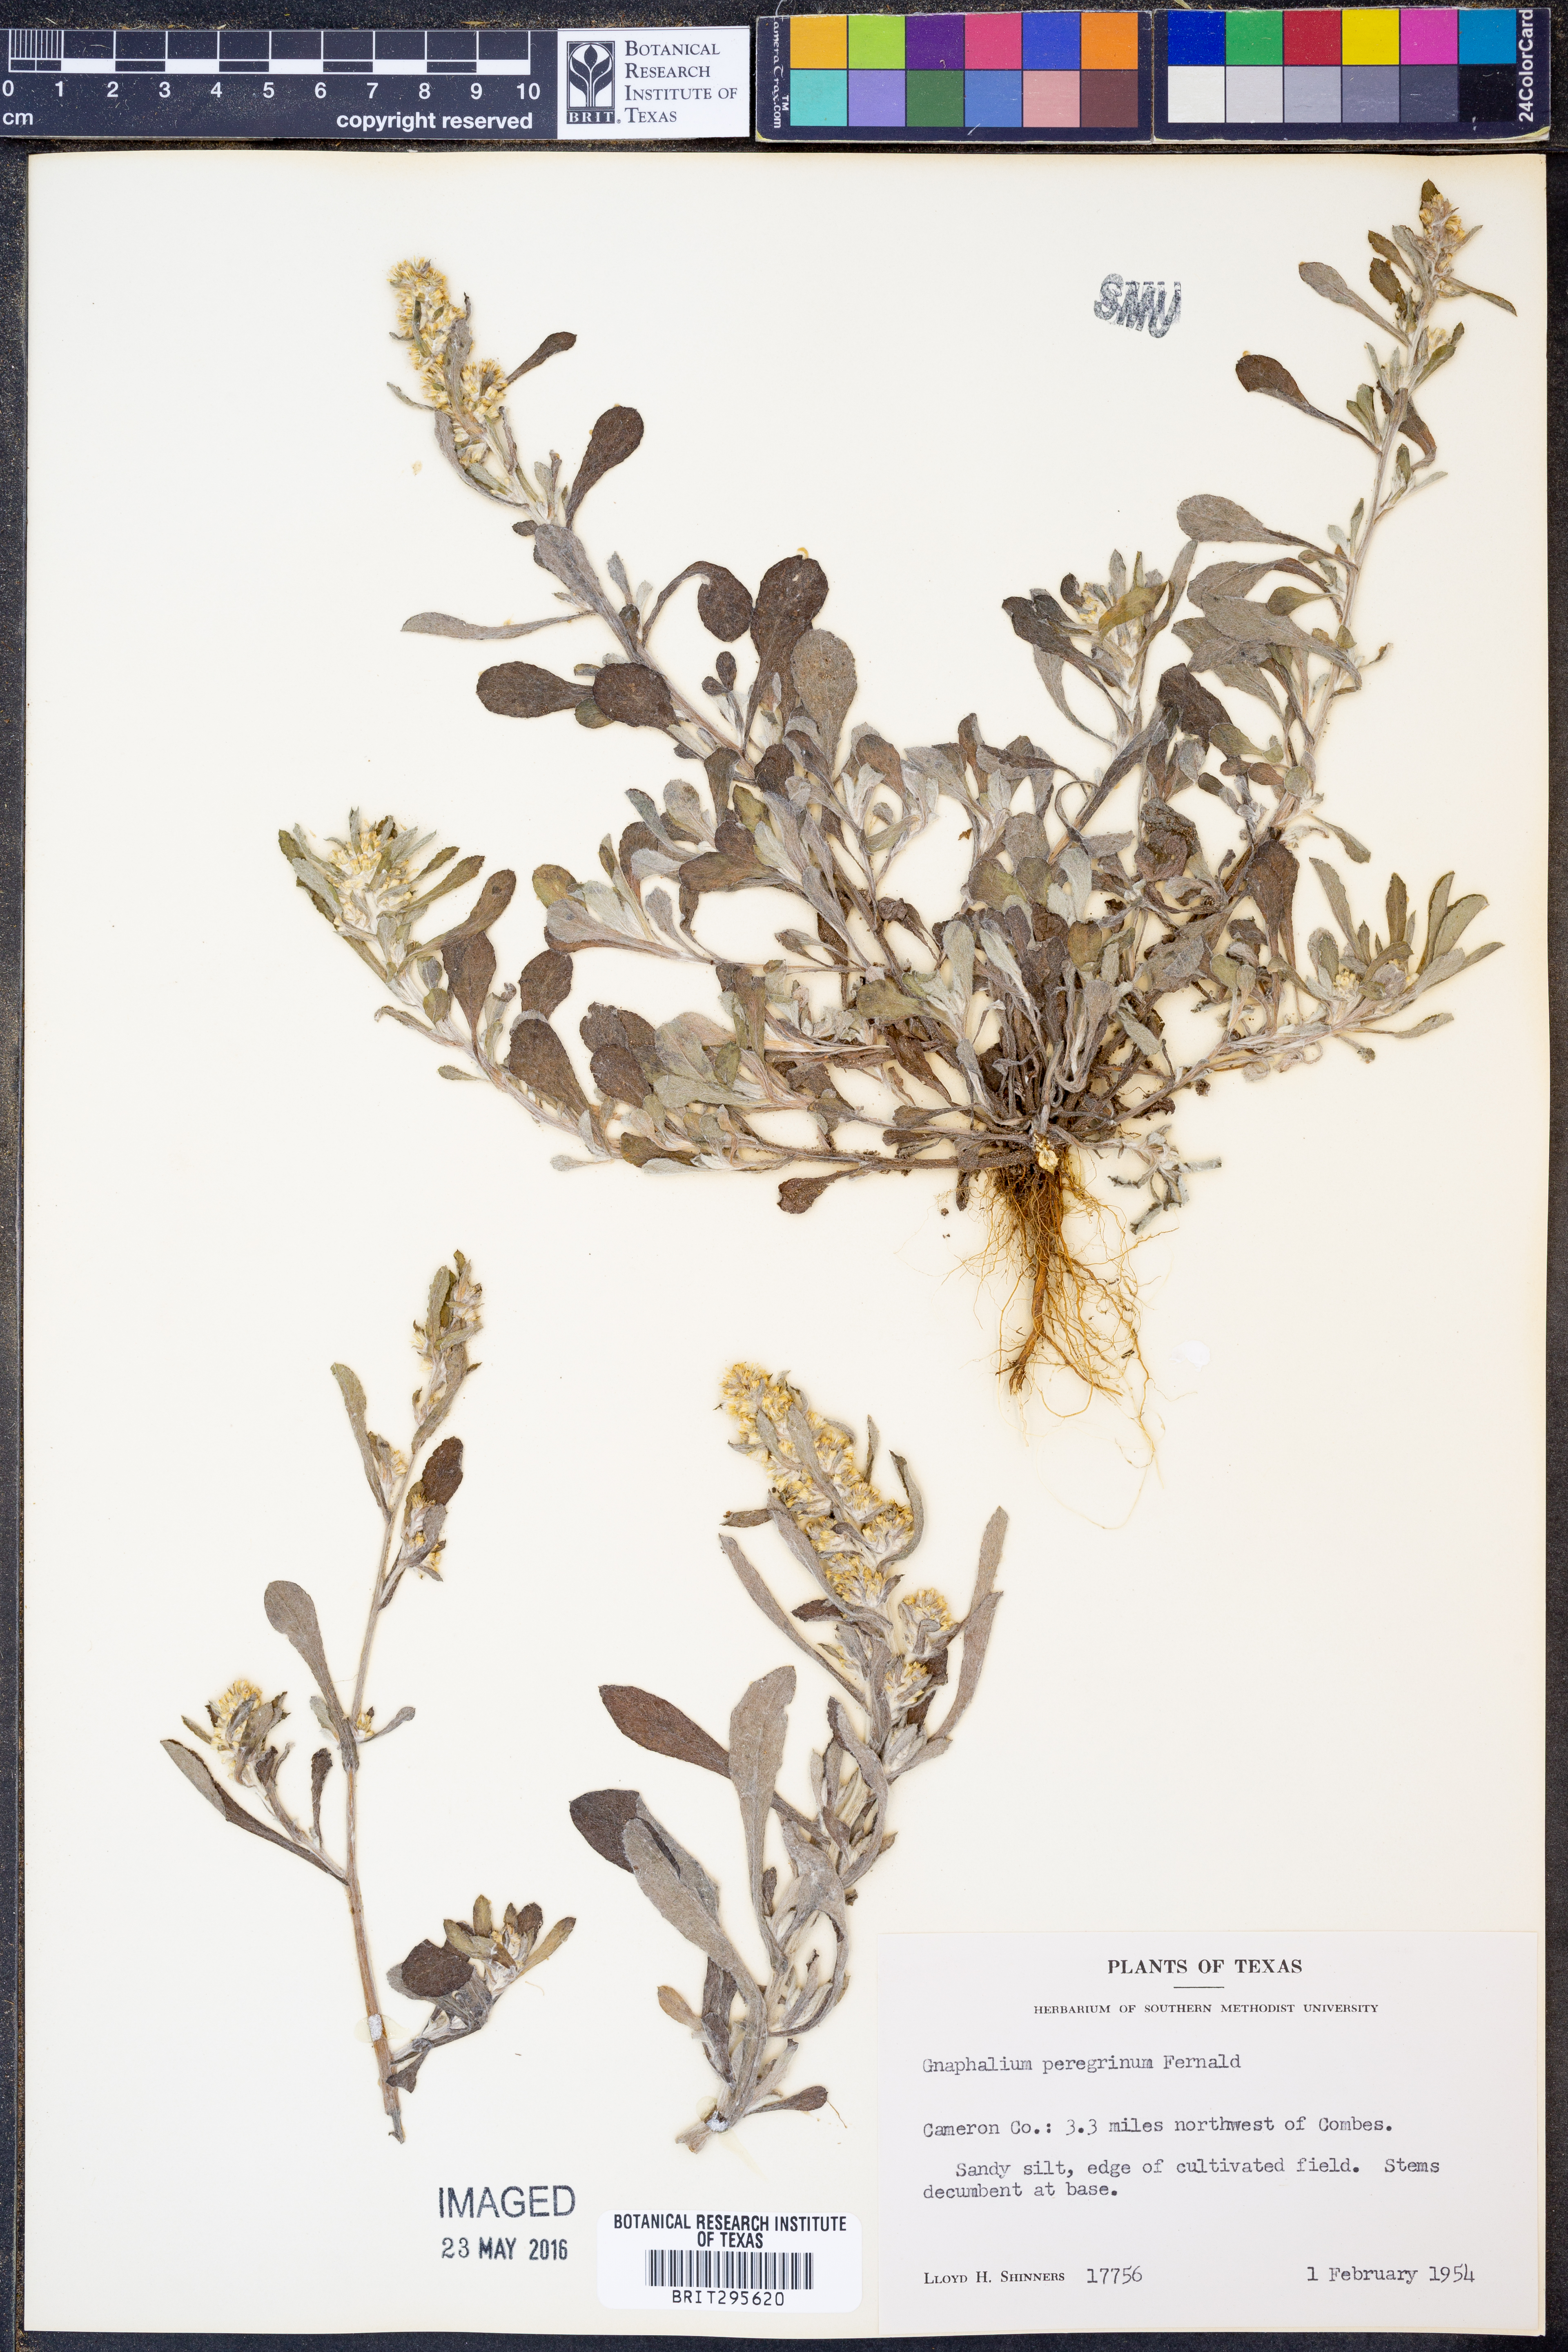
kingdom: Plantae
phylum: Tracheophyta
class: Magnoliopsida
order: Asterales
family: Asteraceae
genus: Gamochaeta
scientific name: Gamochaeta pensylvanica
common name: Pennsylvania everlasting
